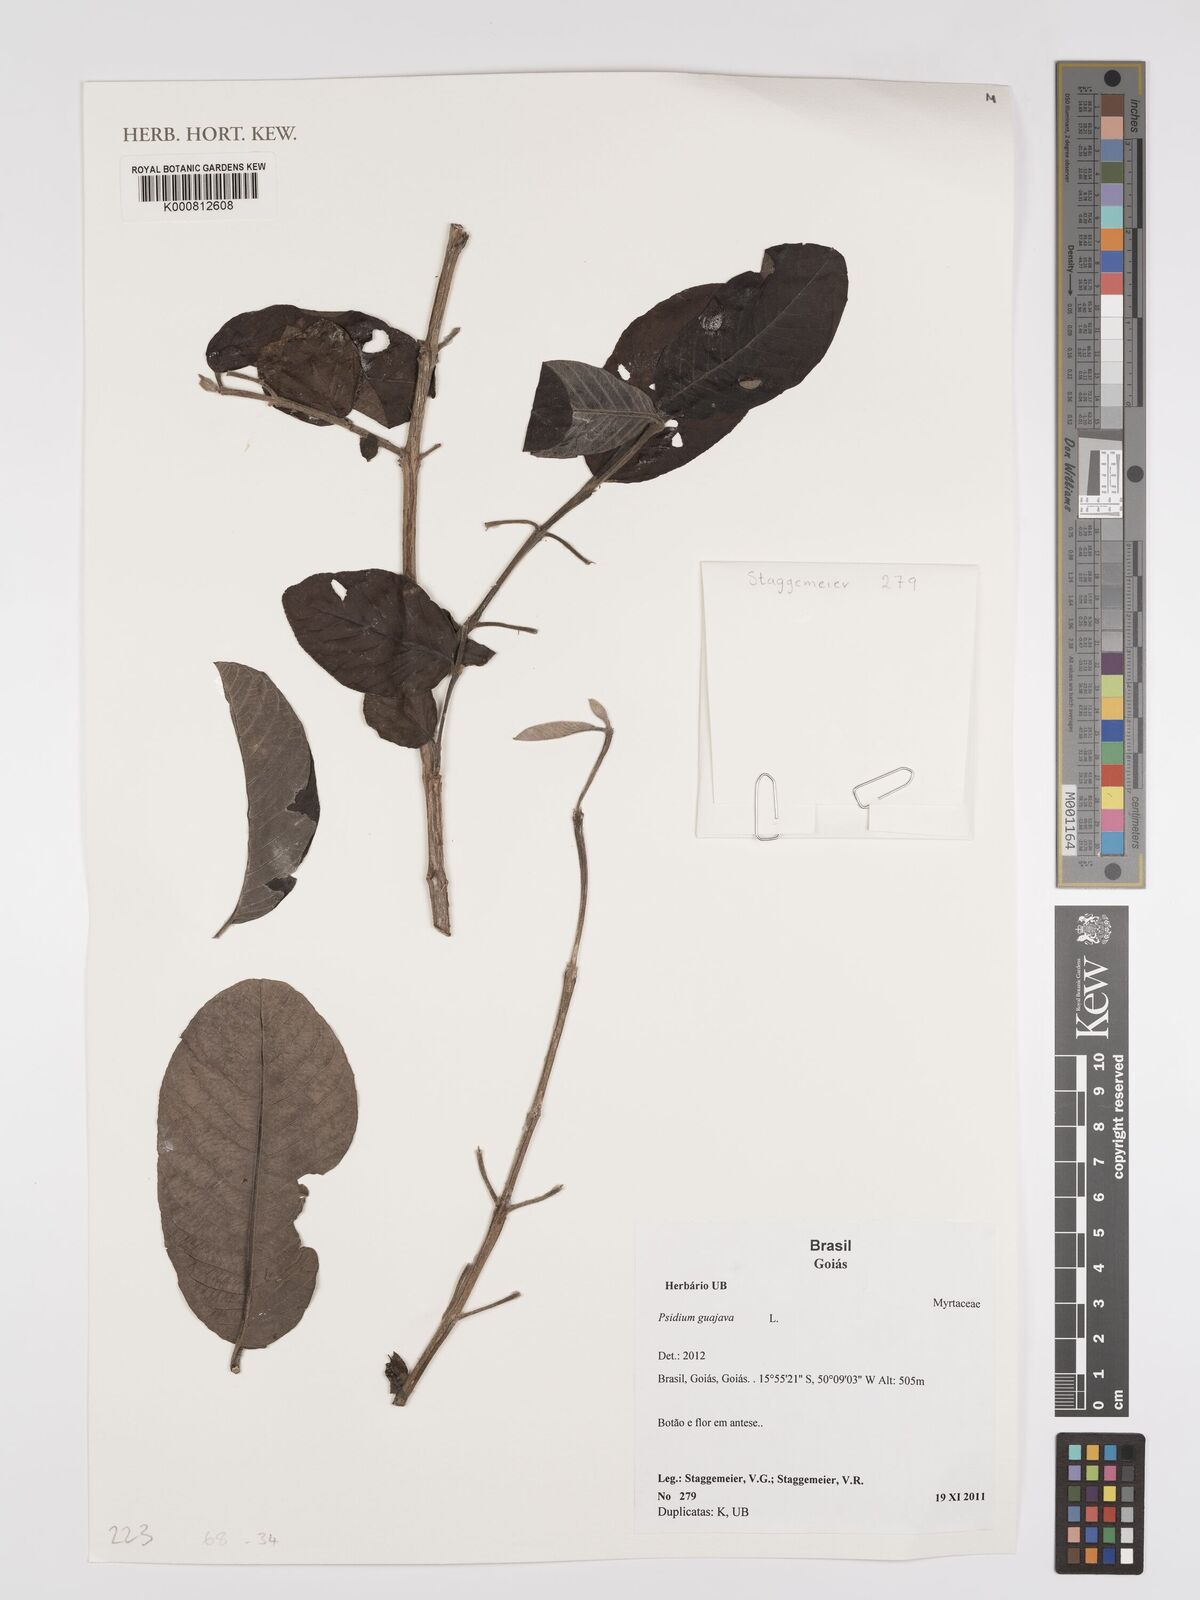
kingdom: Plantae
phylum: Tracheophyta
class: Magnoliopsida
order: Myrtales
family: Myrtaceae
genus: Psidium
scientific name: Psidium guajava
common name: Guava
